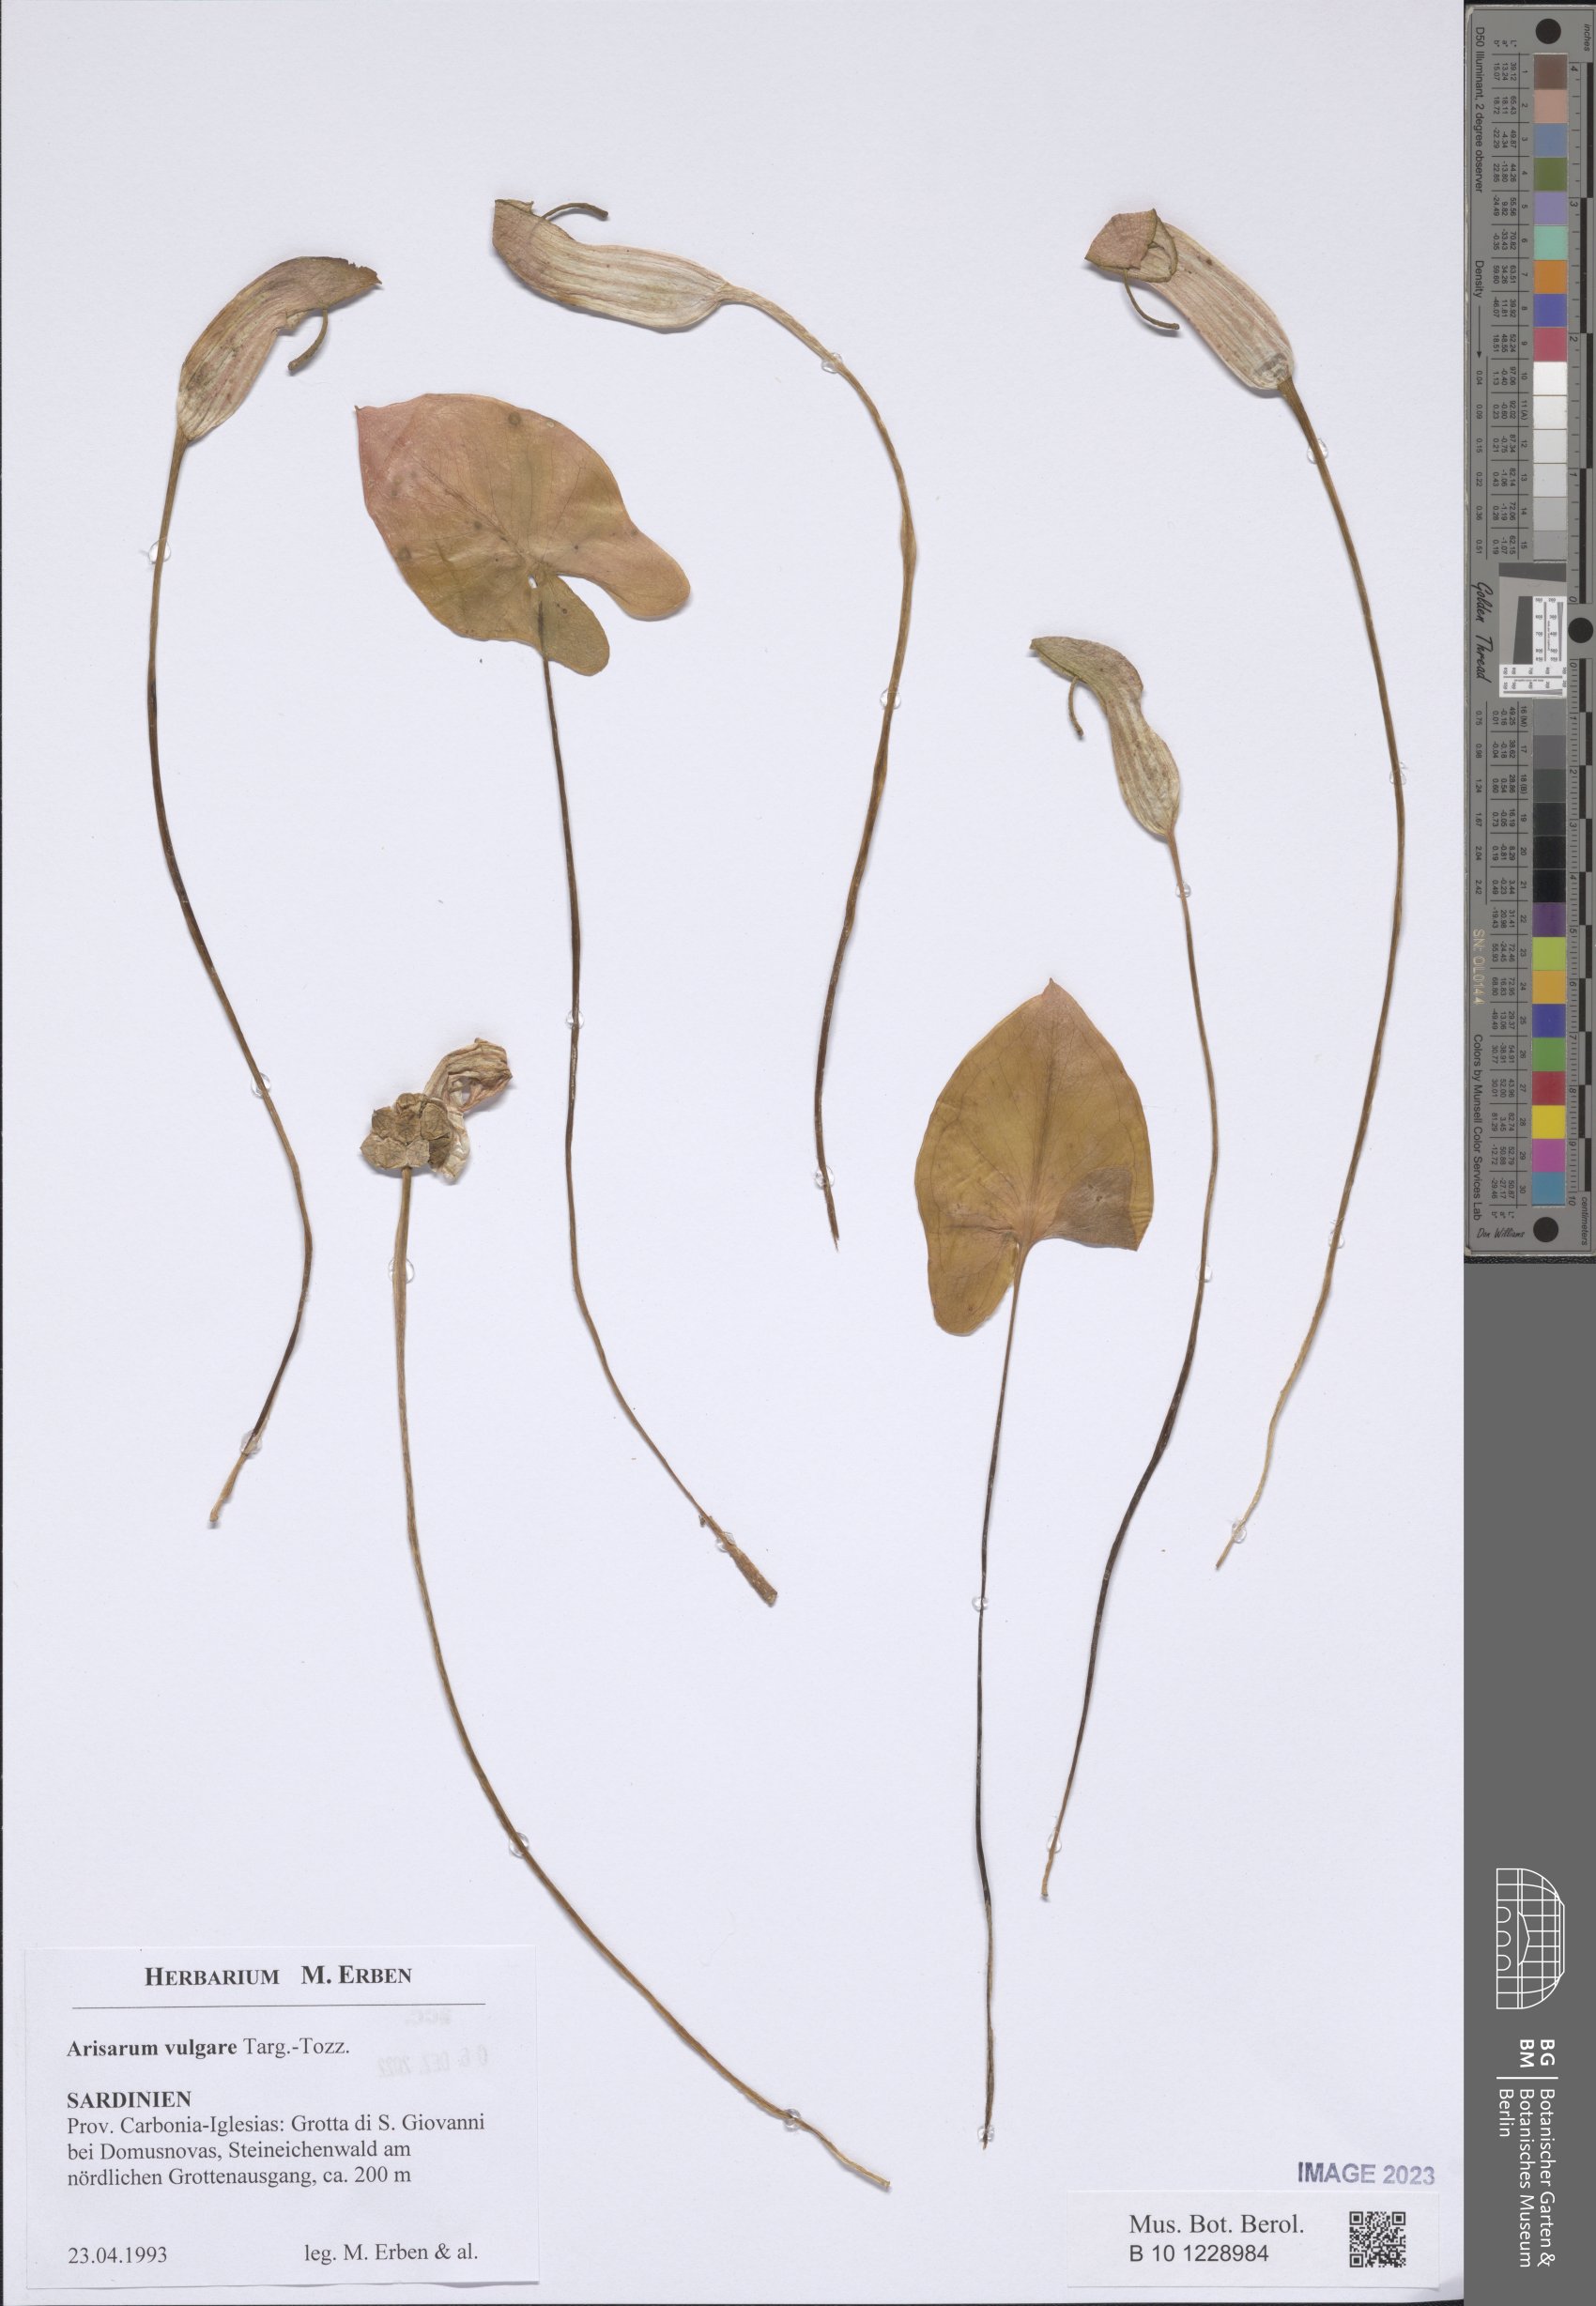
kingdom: Plantae
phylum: Tracheophyta
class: Liliopsida
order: Alismatales
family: Araceae
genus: Arisarum
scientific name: Arisarum vulgare
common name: Common arisarum
